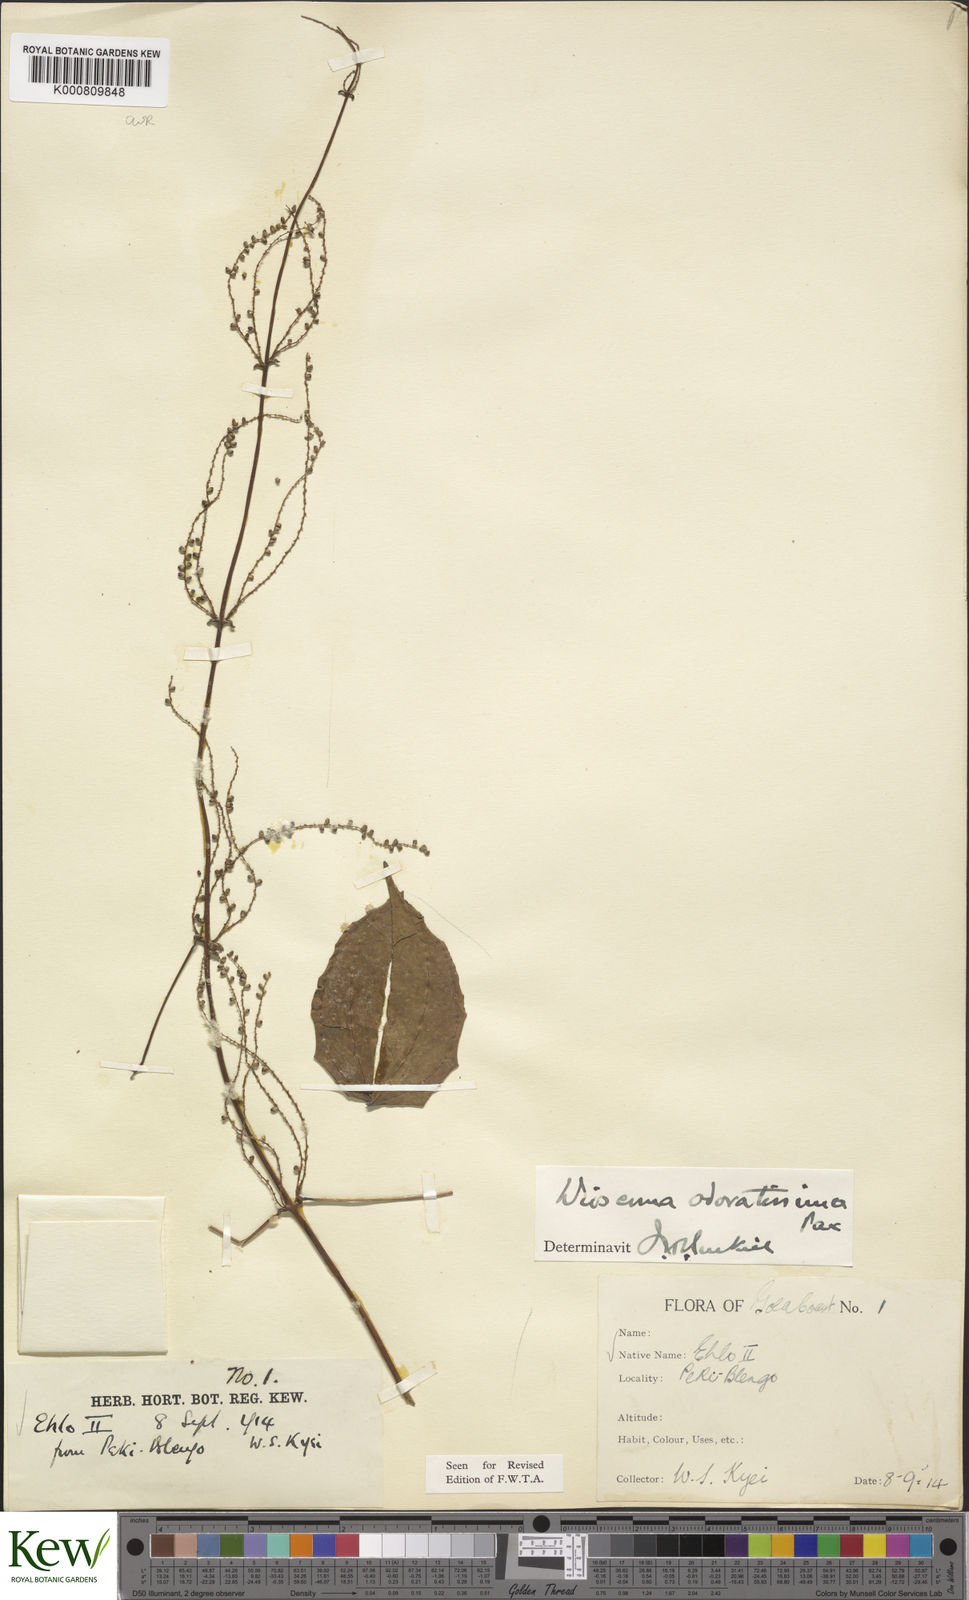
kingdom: Plantae
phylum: Tracheophyta
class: Liliopsida
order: Dioscoreales
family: Dioscoreaceae
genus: Dioscorea
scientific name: Dioscorea praehensilis
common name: Bush yam
